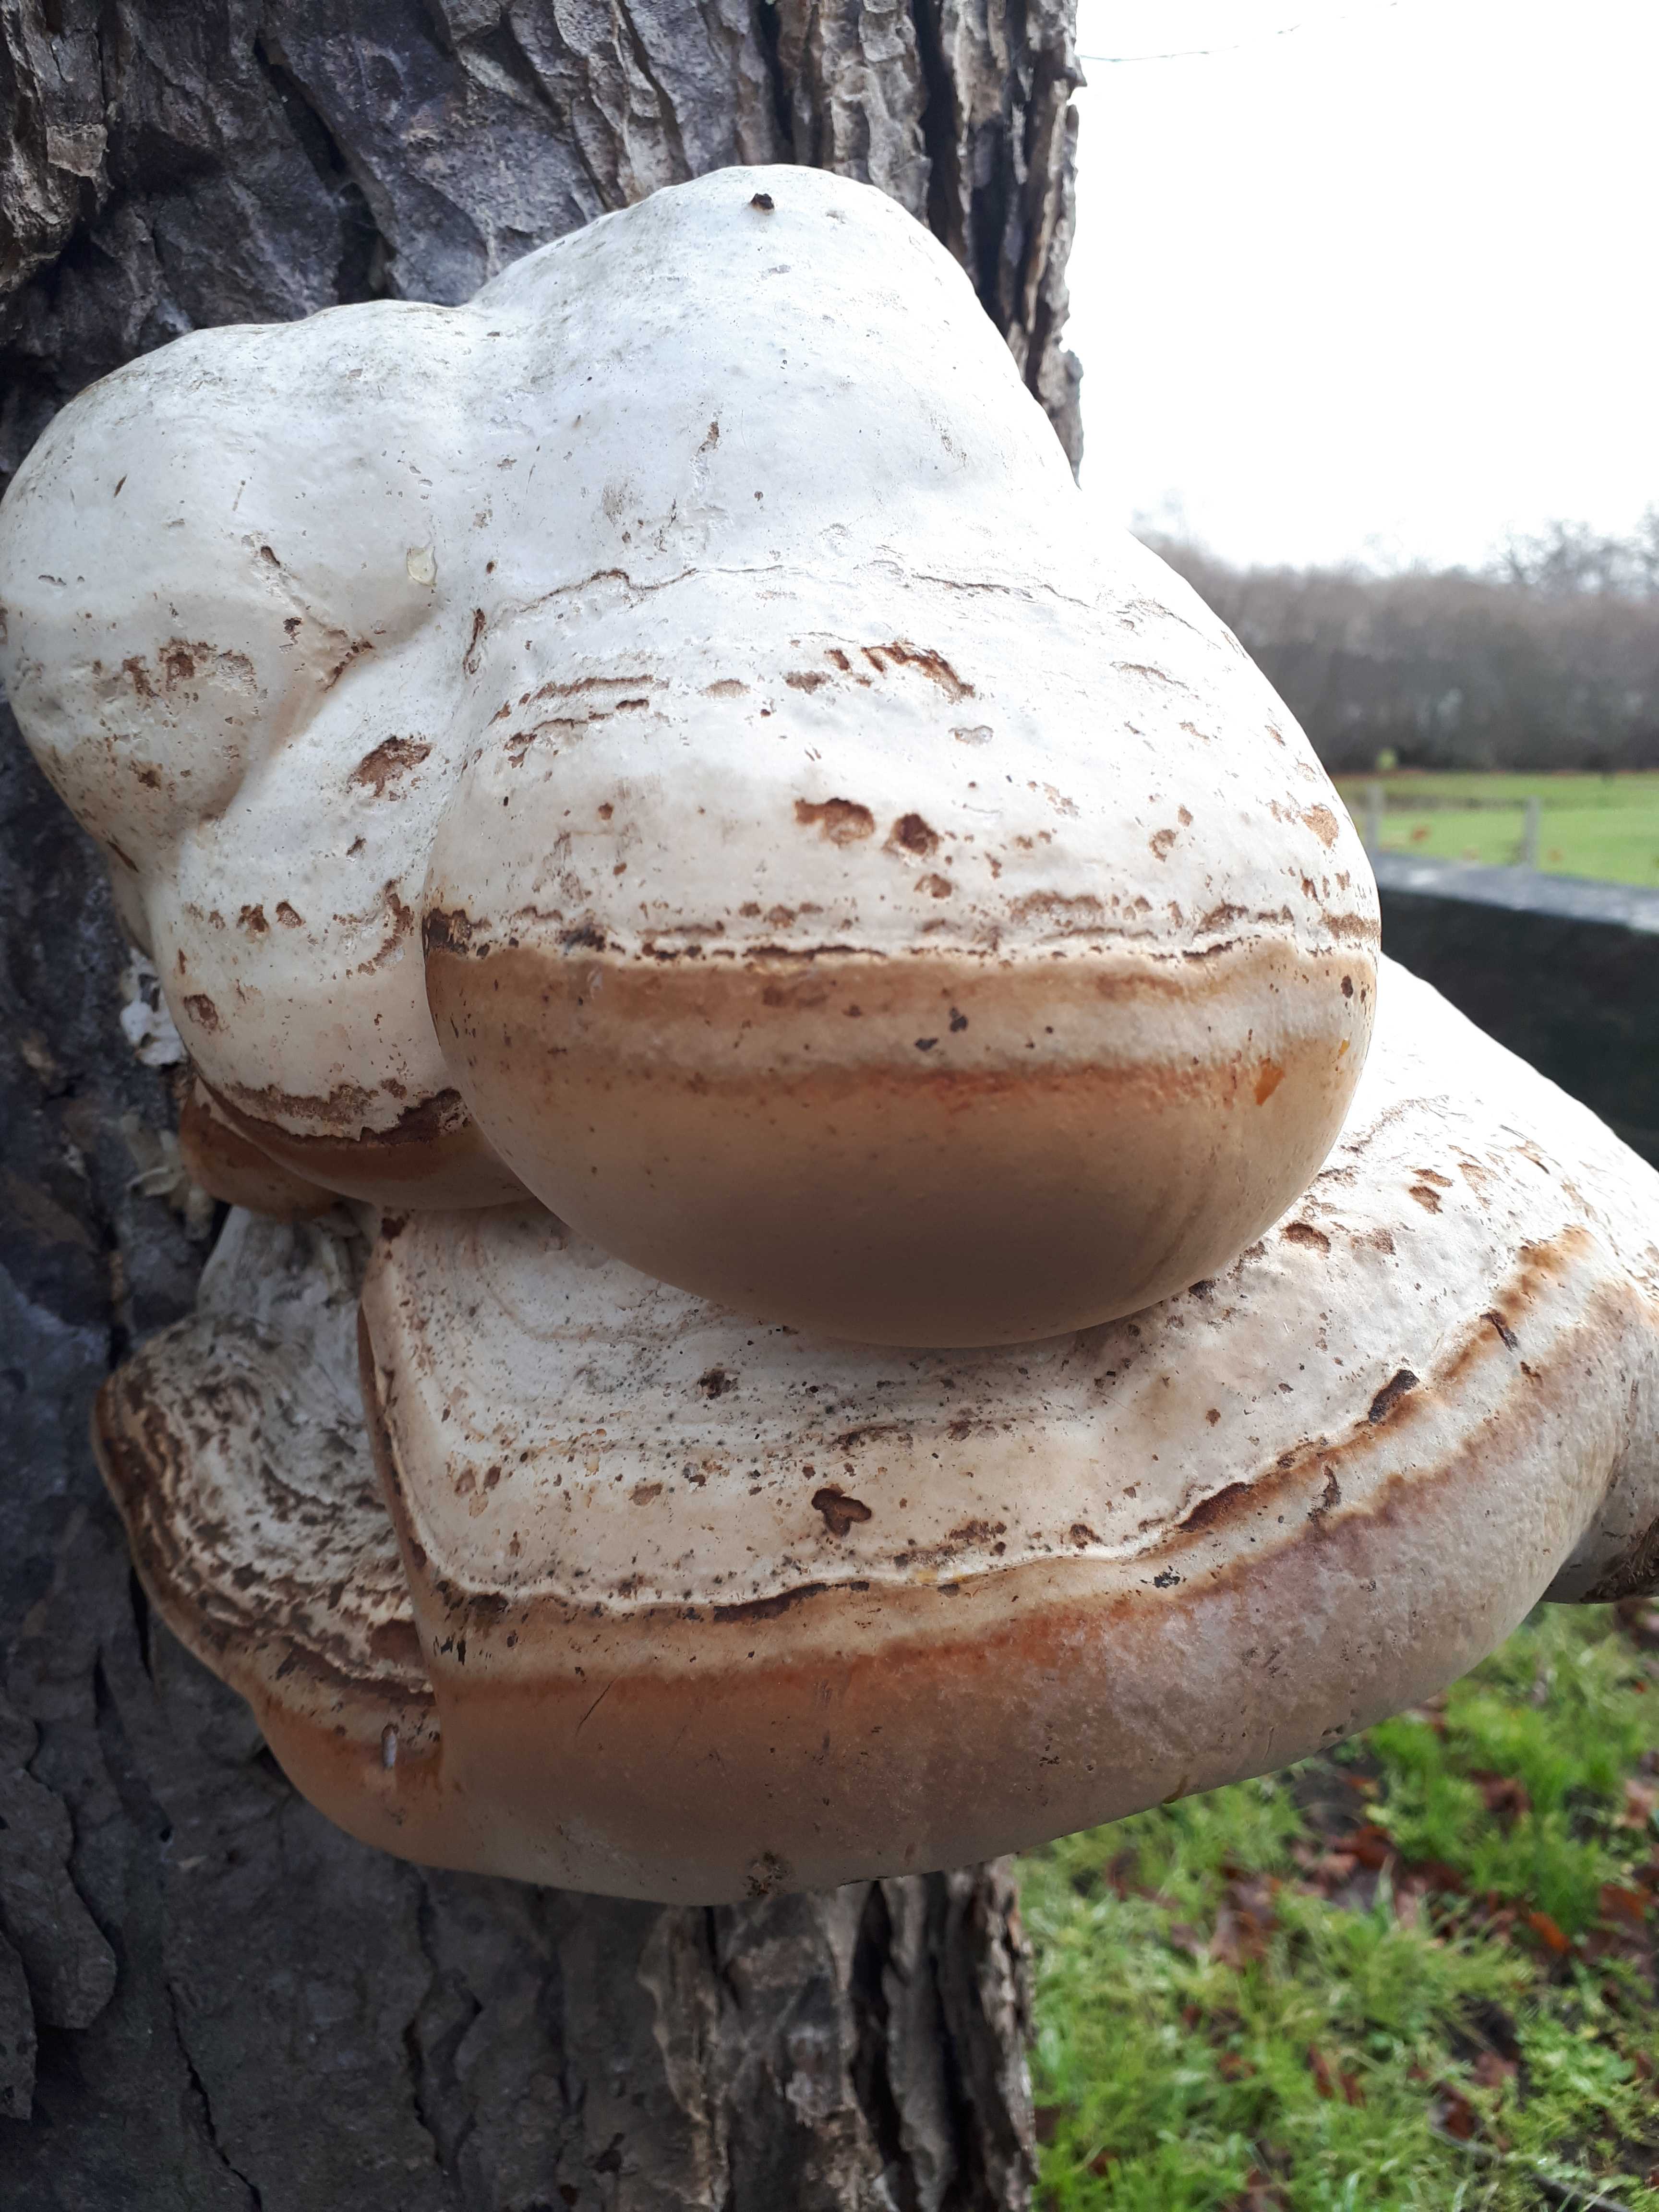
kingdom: Fungi
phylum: Basidiomycota
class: Agaricomycetes
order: Polyporales
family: Polyporaceae
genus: Fomes
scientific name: Fomes fomentarius
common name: tøndersvamp
